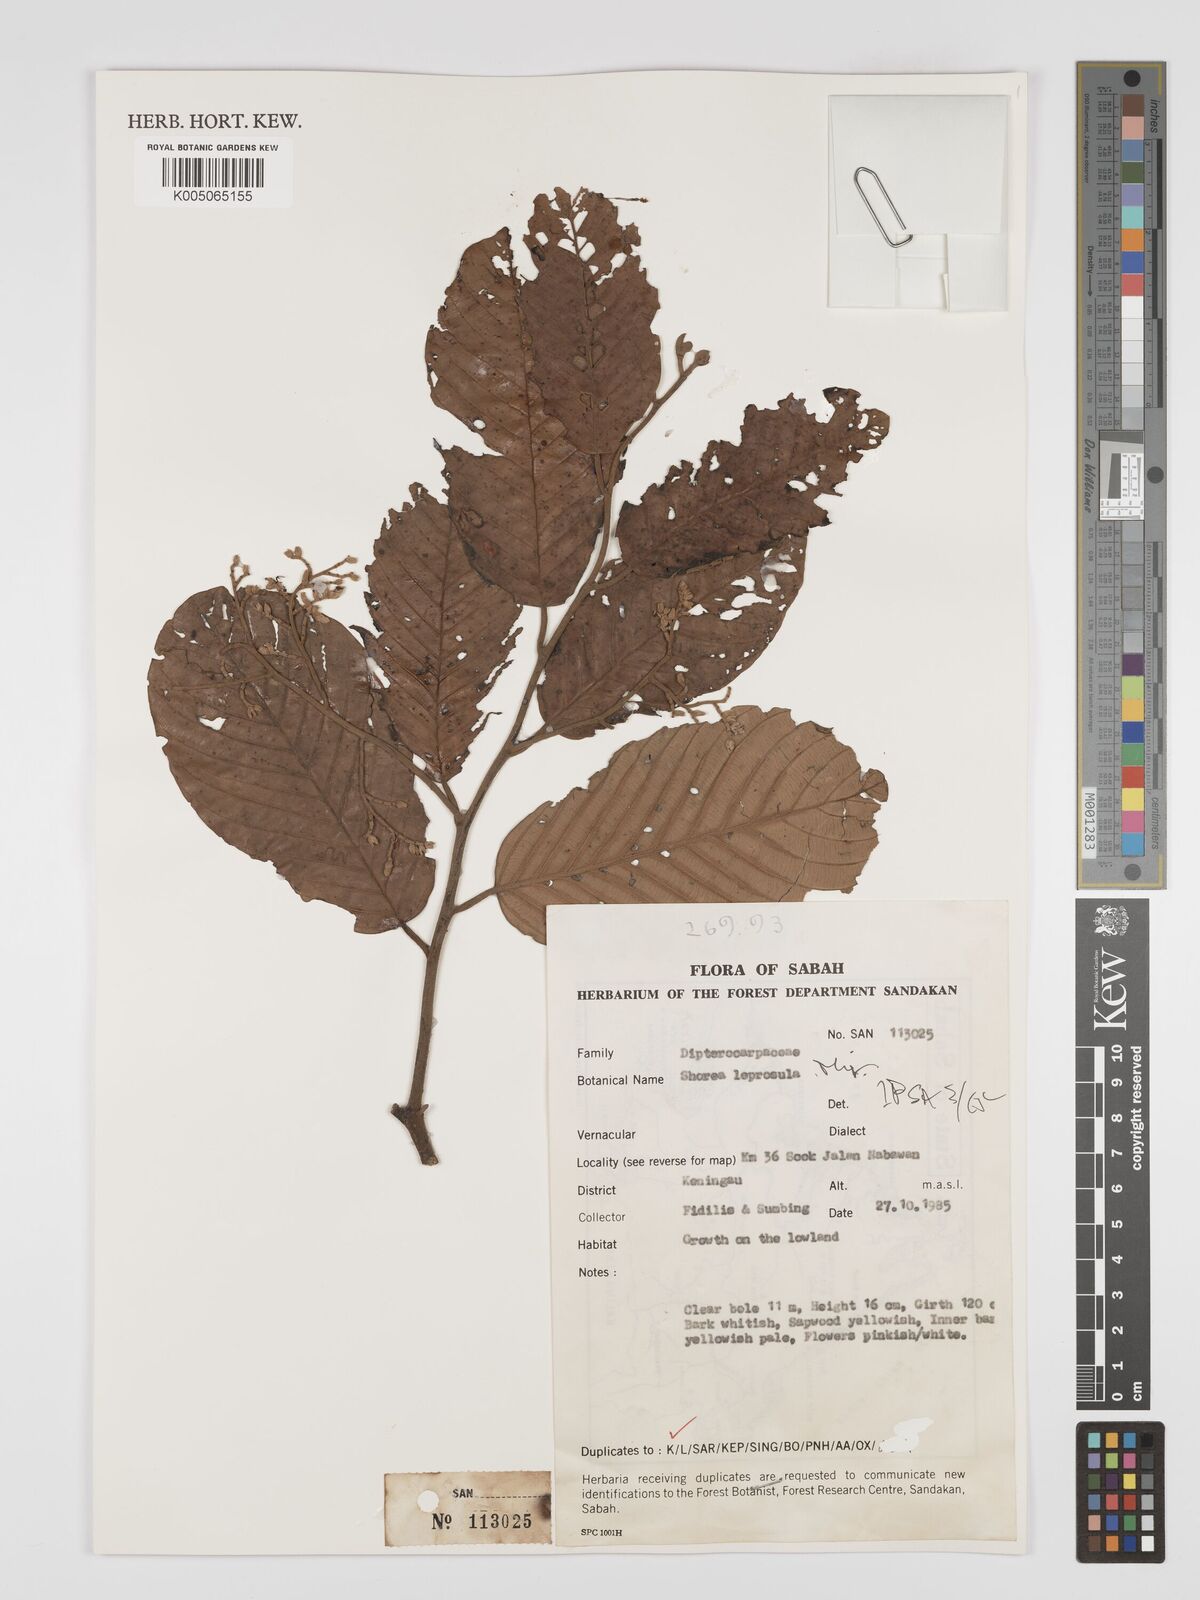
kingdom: Plantae
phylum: Tracheophyta
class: Magnoliopsida
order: Malvales
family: Dipterocarpaceae
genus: Shorea
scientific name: Shorea leprosula
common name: Light red meranti
